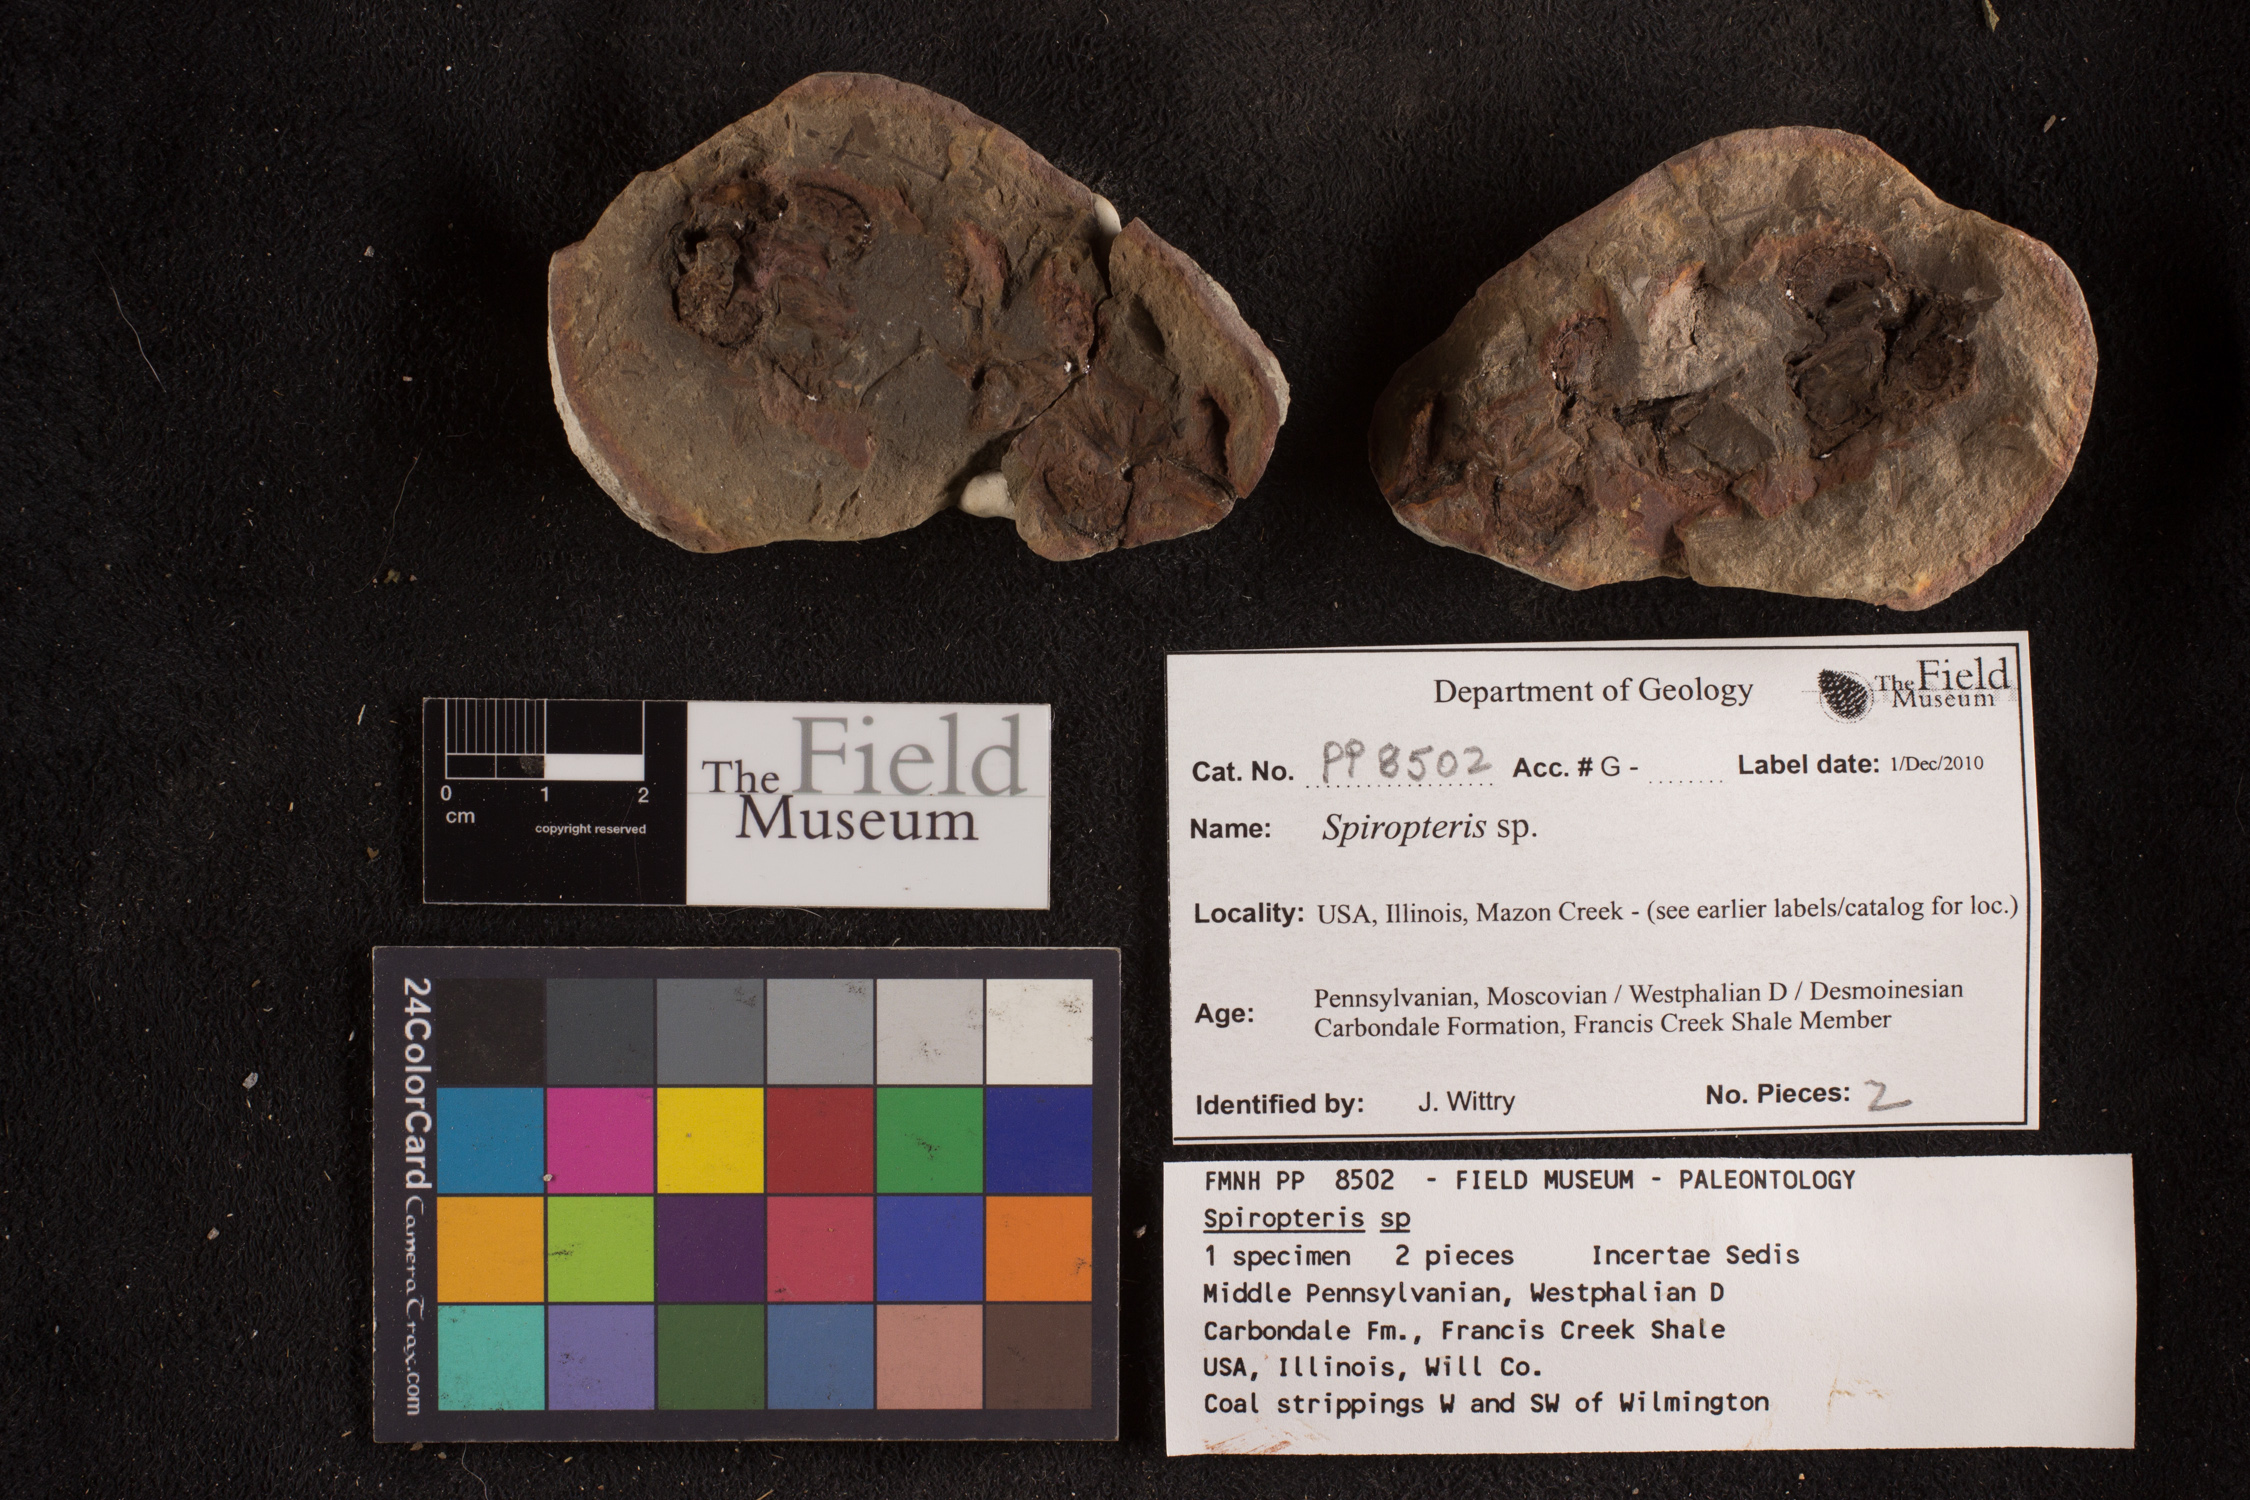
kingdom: Plantae
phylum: Tracheophyta
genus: Spiropteris
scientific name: Spiropteris
